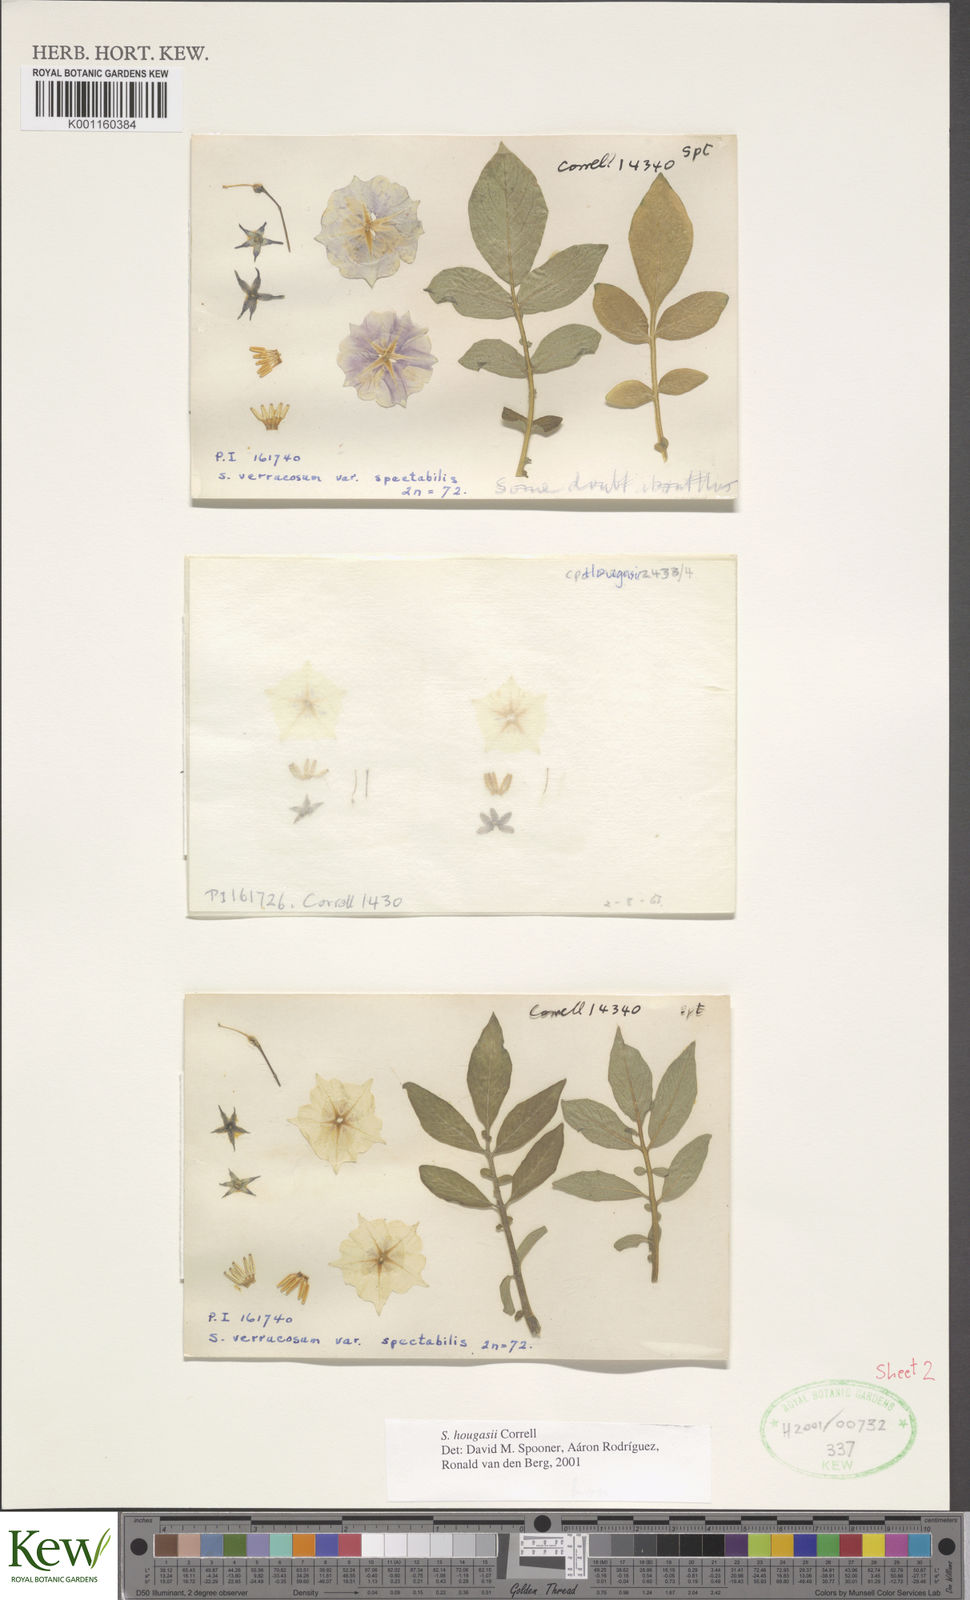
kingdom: Plantae
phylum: Tracheophyta
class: Magnoliopsida
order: Solanales
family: Solanaceae
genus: Solanum
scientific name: Solanum hougasii
